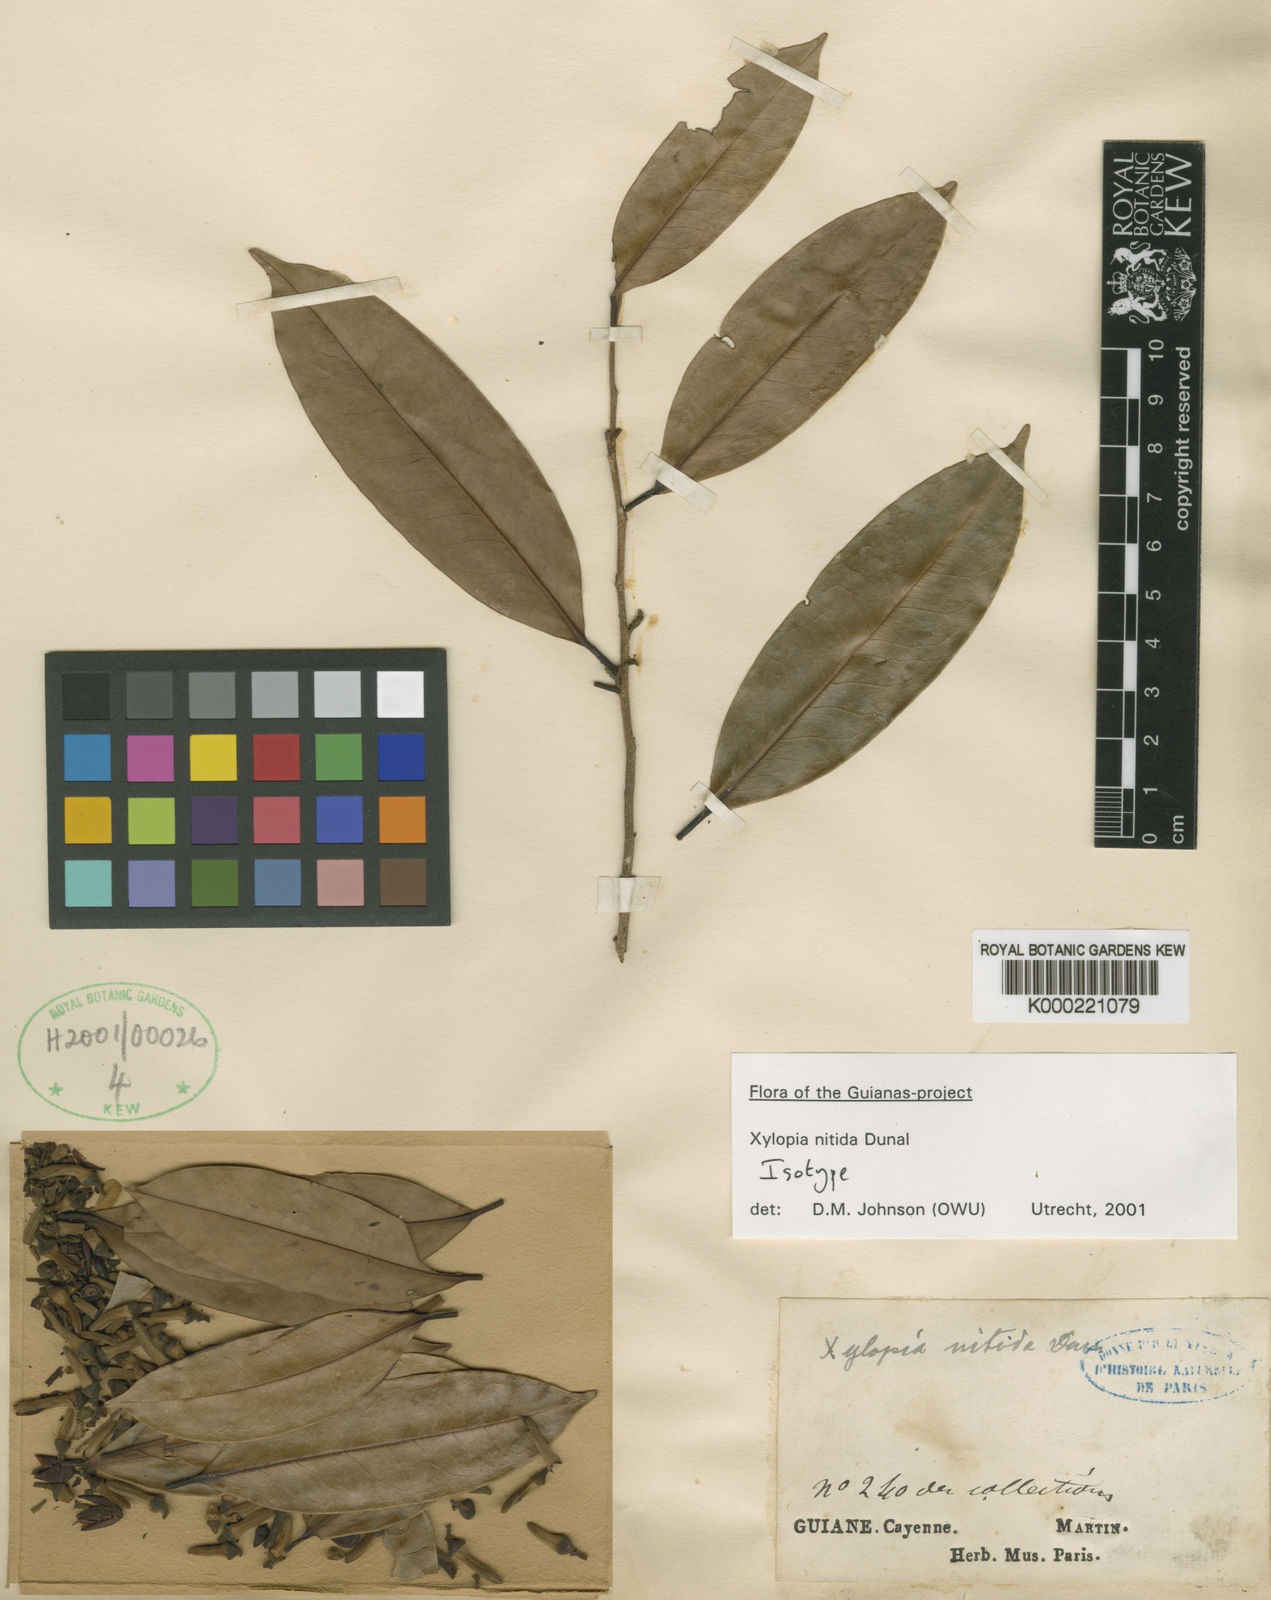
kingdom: Plantae
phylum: Tracheophyta
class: Magnoliopsida
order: Magnoliales
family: Annonaceae
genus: Xylopia
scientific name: Xylopia nitida
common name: White kuyama
